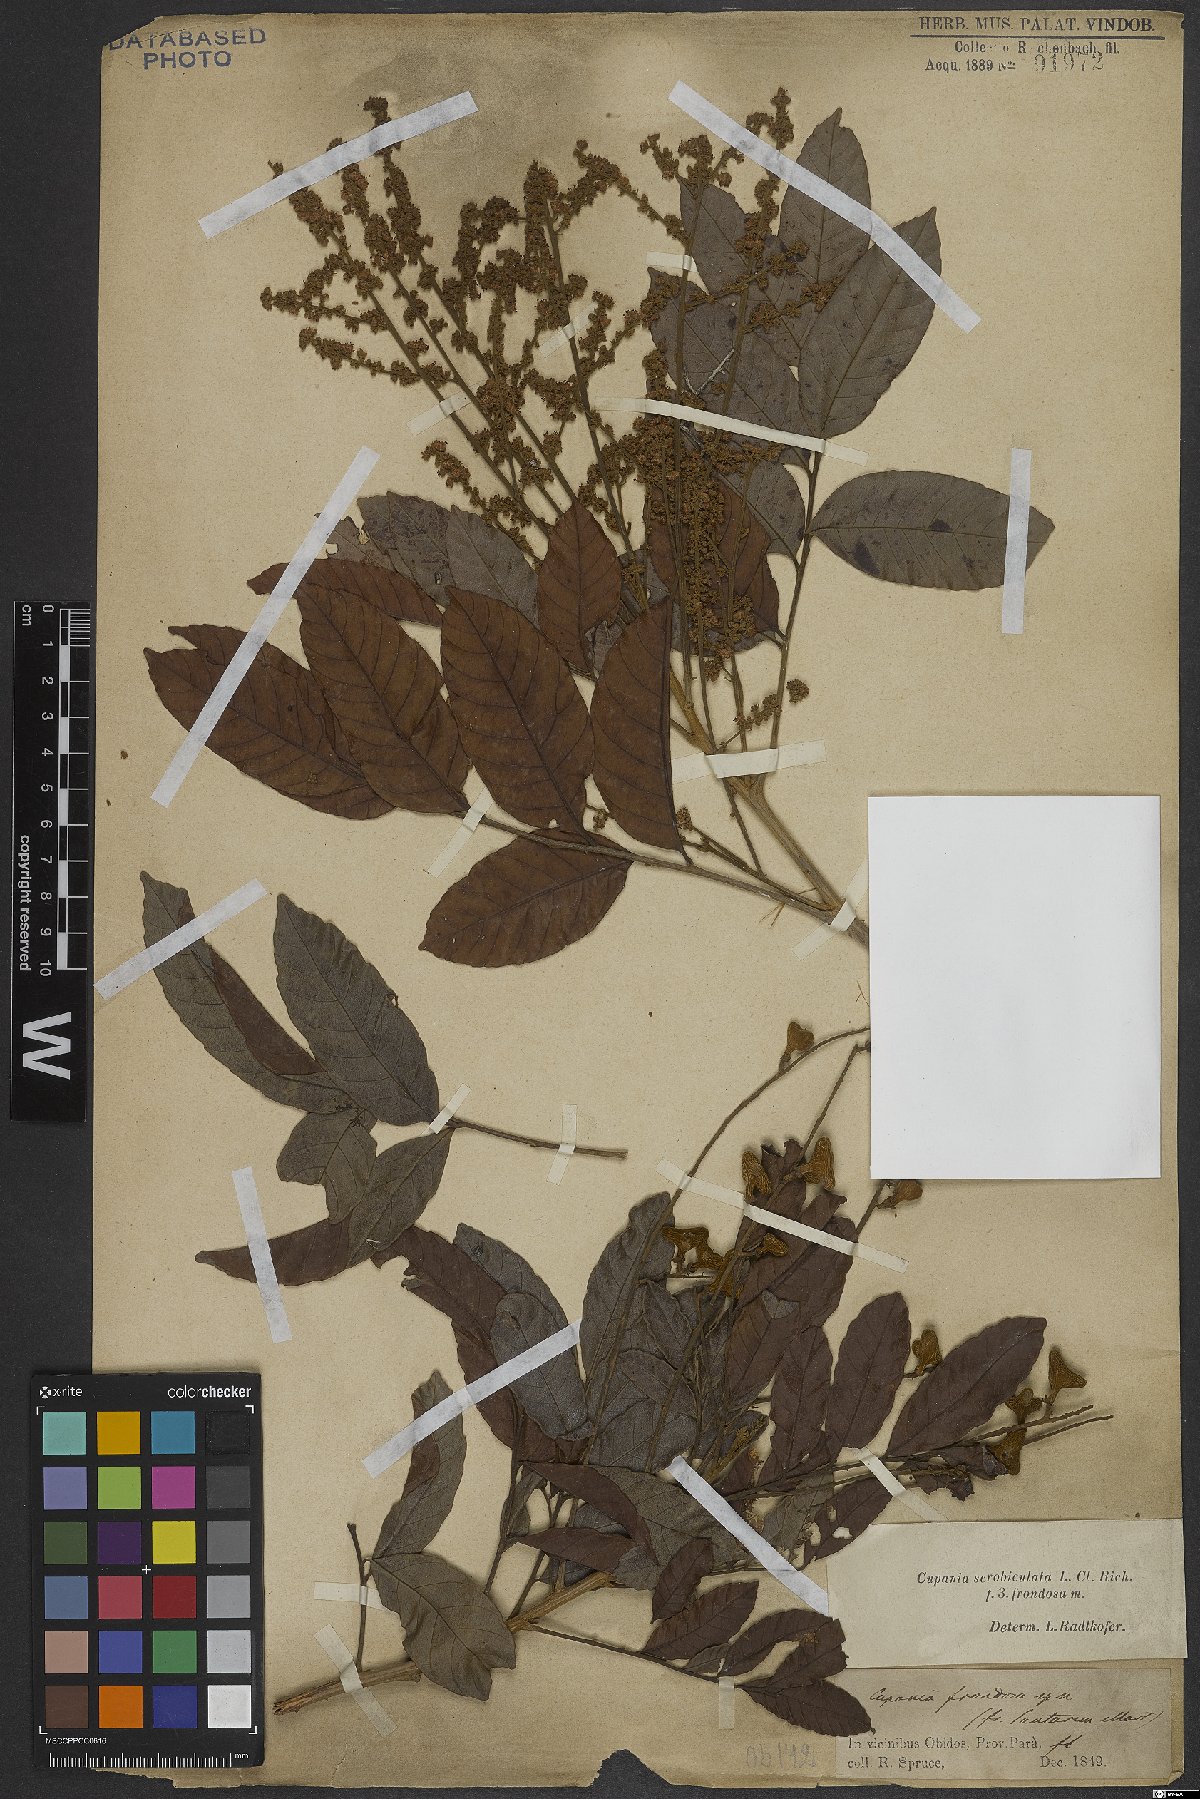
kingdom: Plantae
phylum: Tracheophyta
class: Magnoliopsida
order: Sapindales
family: Sapindaceae
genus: Cupania
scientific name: Cupania scrobiculata
